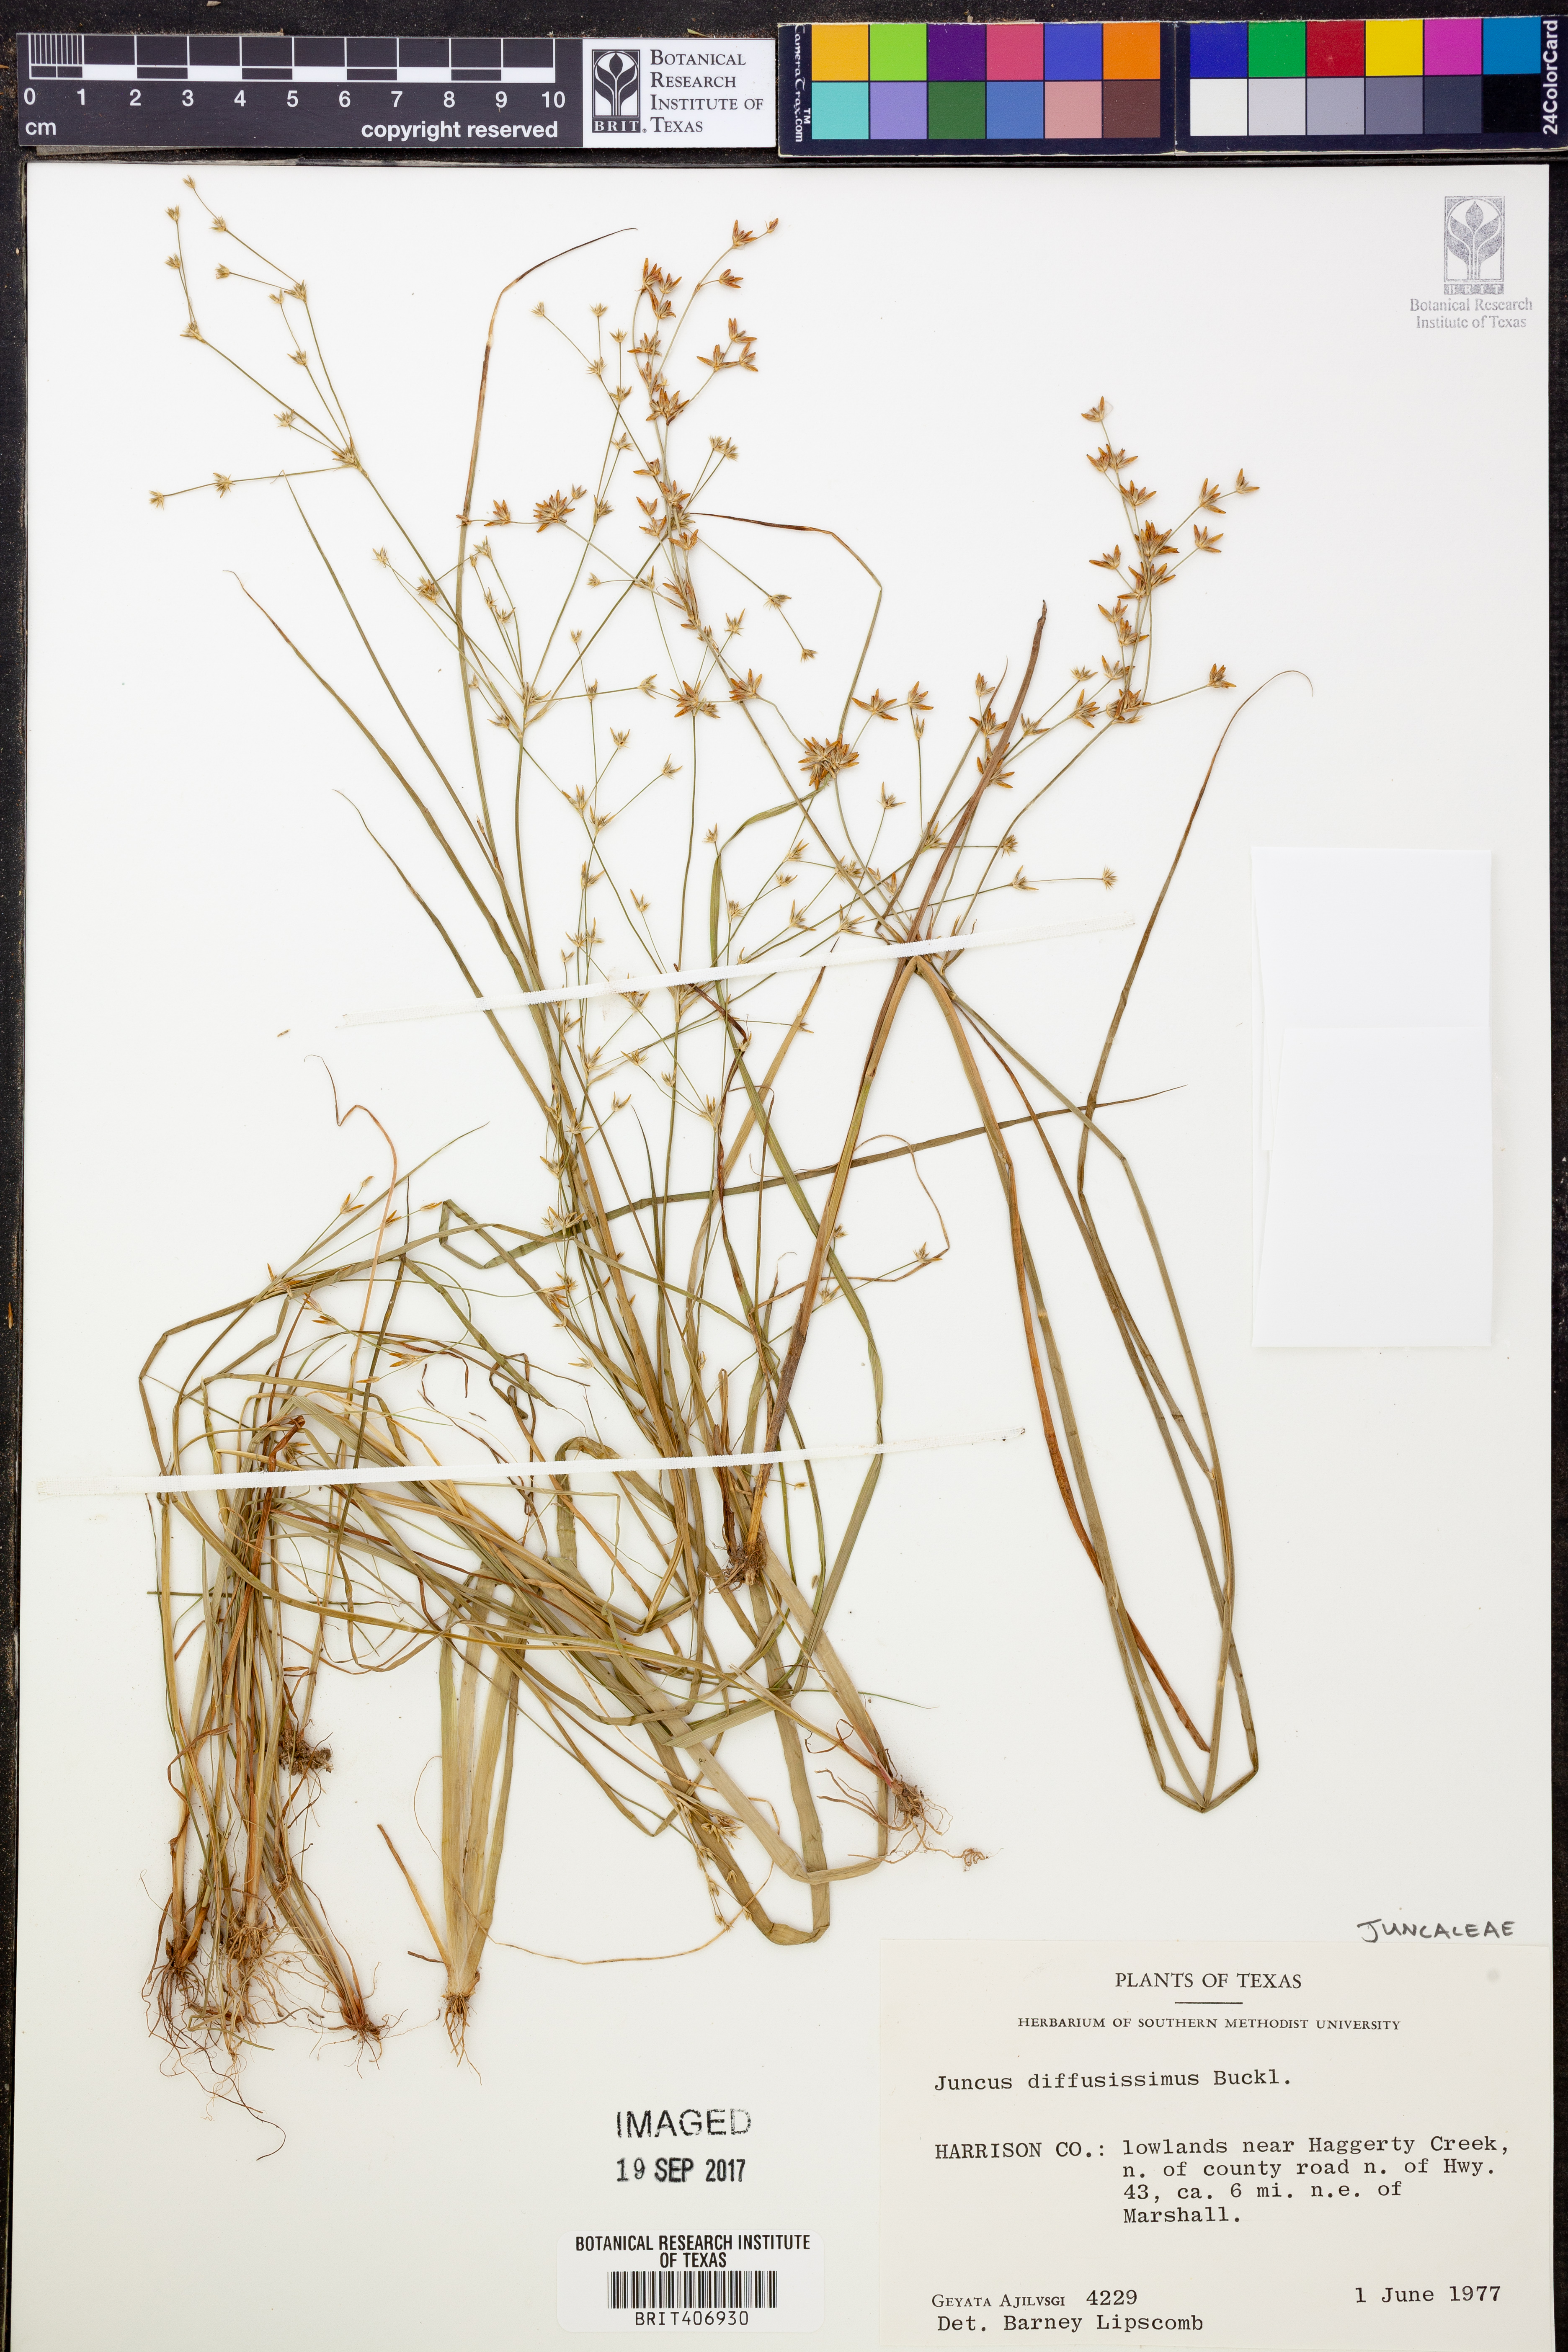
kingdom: Plantae
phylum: Tracheophyta
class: Liliopsida
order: Poales
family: Juncaceae
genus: Juncus
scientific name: Juncus diffusissimus
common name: Slimpod rush
